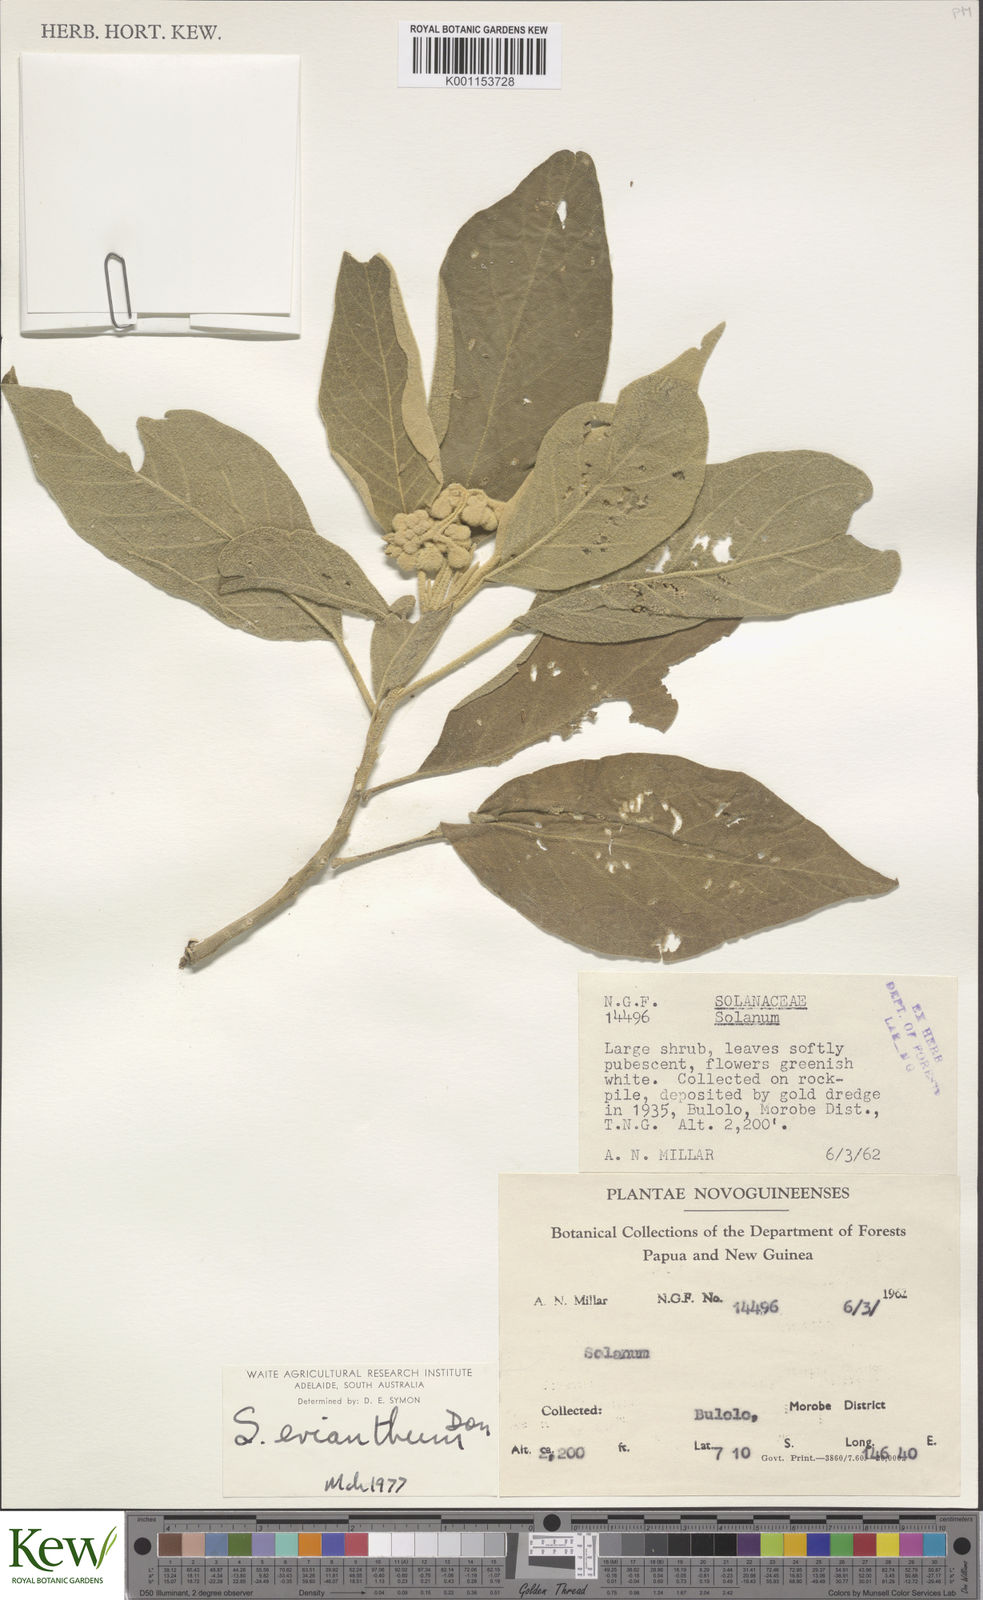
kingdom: Plantae
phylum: Tracheophyta
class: Magnoliopsida
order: Solanales
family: Solanaceae
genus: Solanum
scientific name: Solanum erianthum
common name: Tobacco-tree
